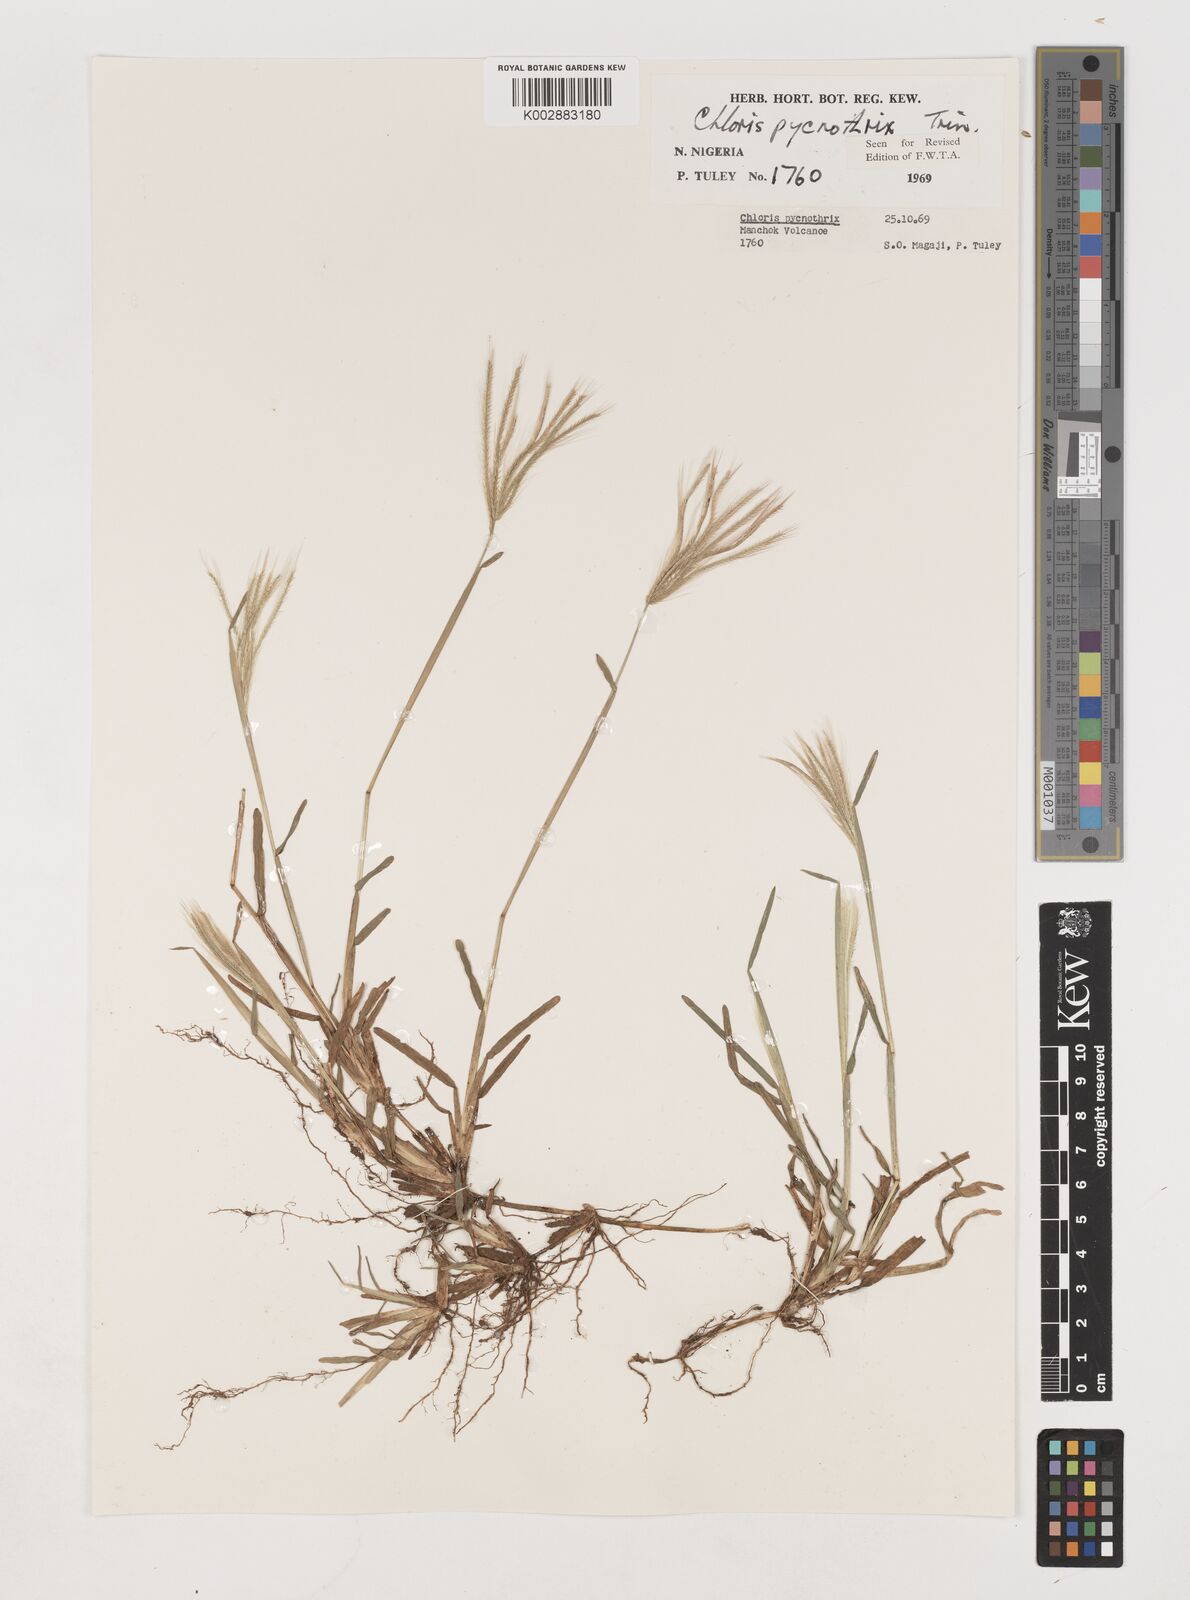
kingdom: Plantae
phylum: Tracheophyta
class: Liliopsida
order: Poales
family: Poaceae
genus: Chloris
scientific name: Chloris pycnothrix
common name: Spiderweb chloris
